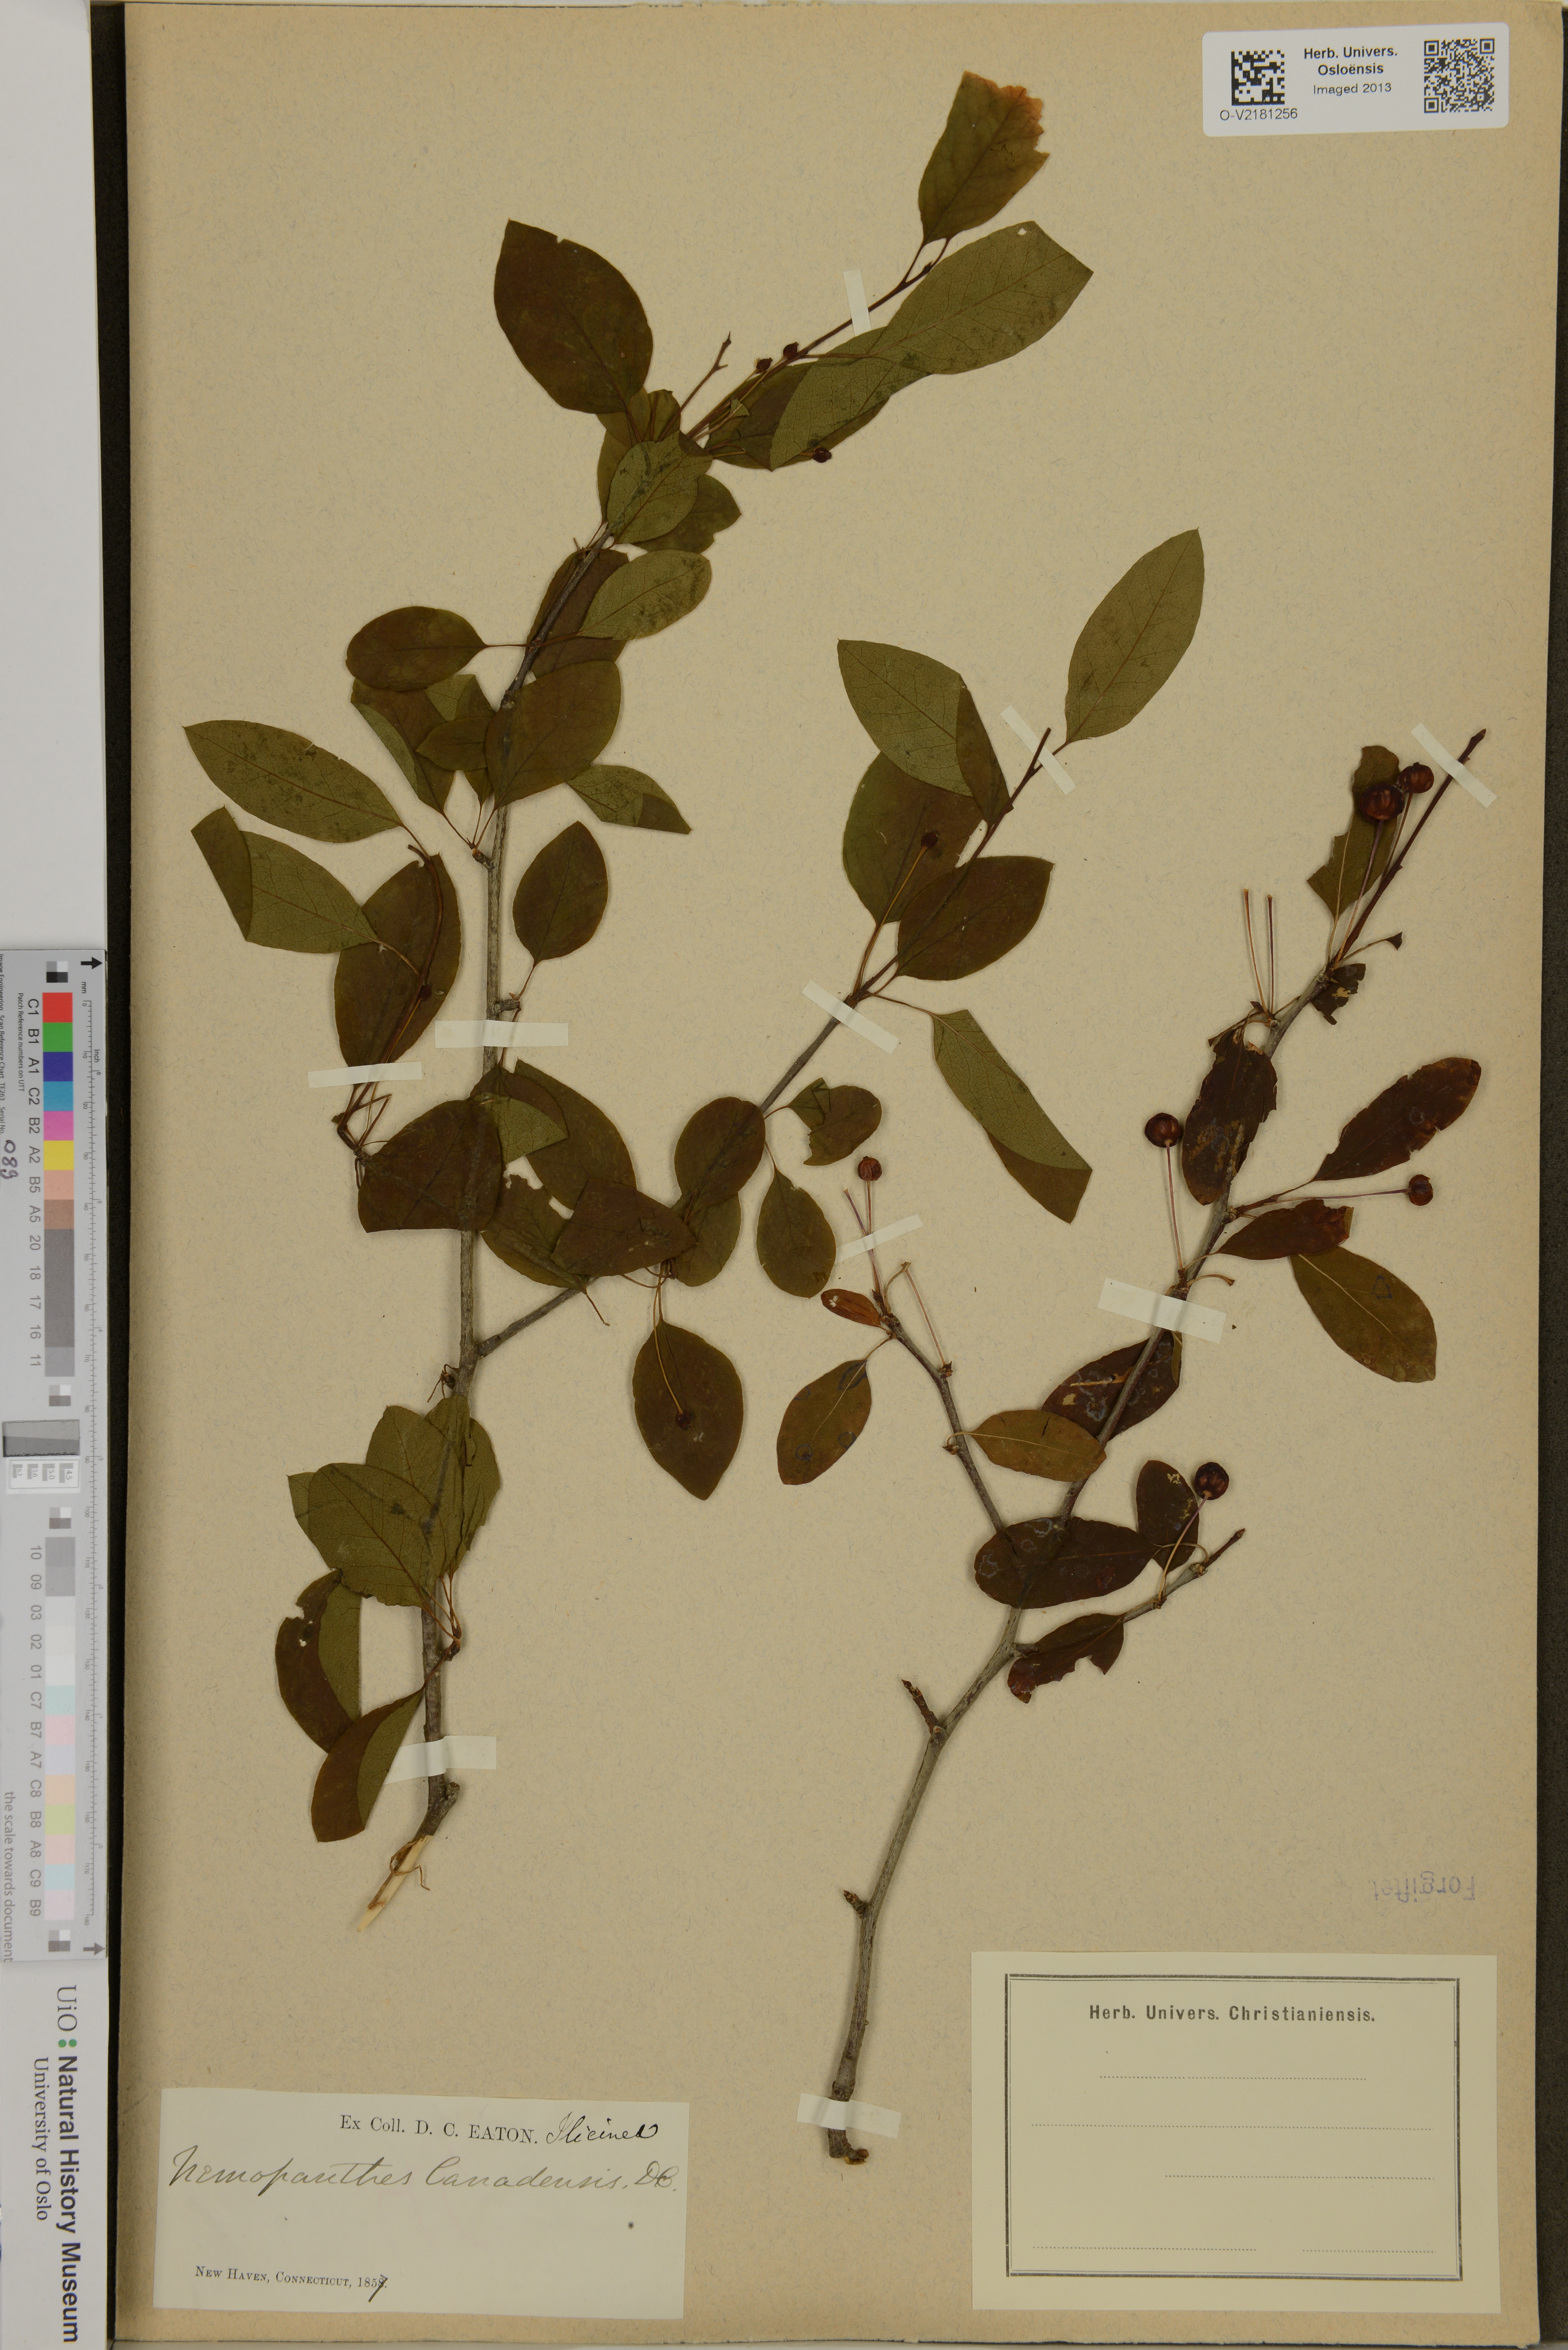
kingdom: Plantae
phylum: Tracheophyta
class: Magnoliopsida
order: Aquifoliales
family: Aquifoliaceae
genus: Ilex
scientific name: Ilex mucronata
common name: Catberry
